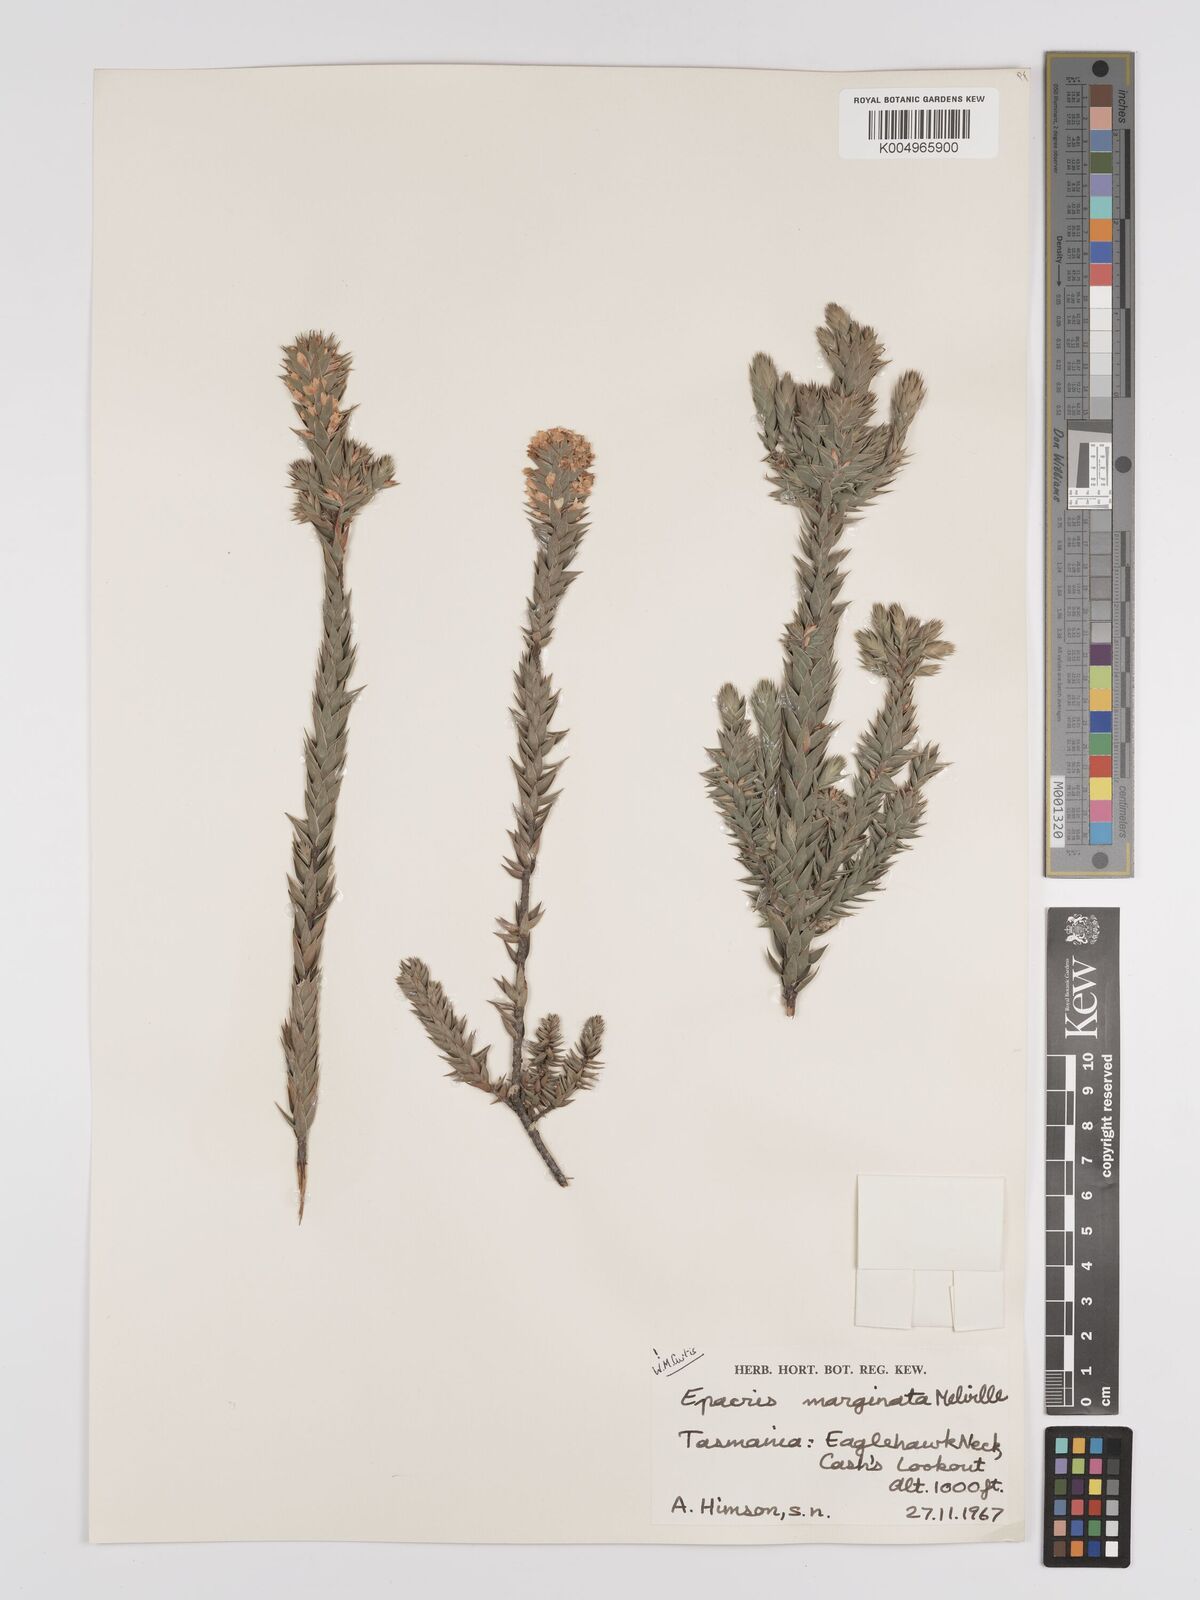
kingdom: Plantae
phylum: Tracheophyta
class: Magnoliopsida
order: Ericales
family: Ericaceae
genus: Epacris
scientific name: Epacris marginata
